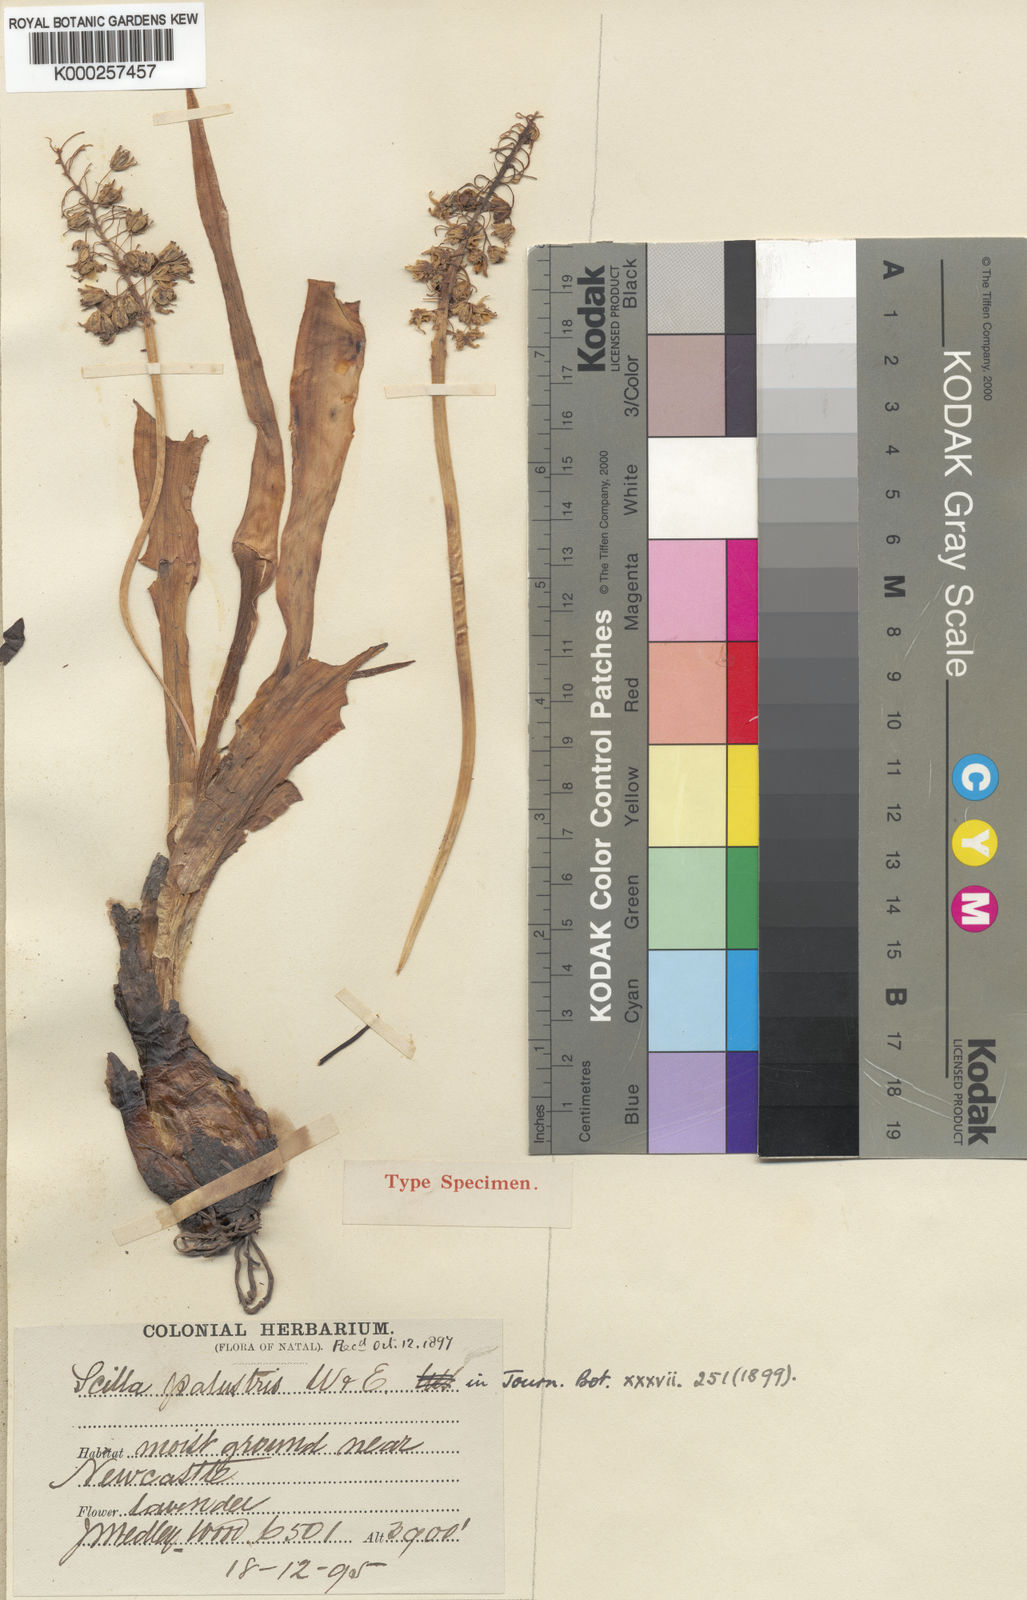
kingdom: Plantae
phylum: Tracheophyta
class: Liliopsida
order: Asparagales
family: Asparagaceae
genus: Ledebouria
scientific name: Ledebouria cooperi
